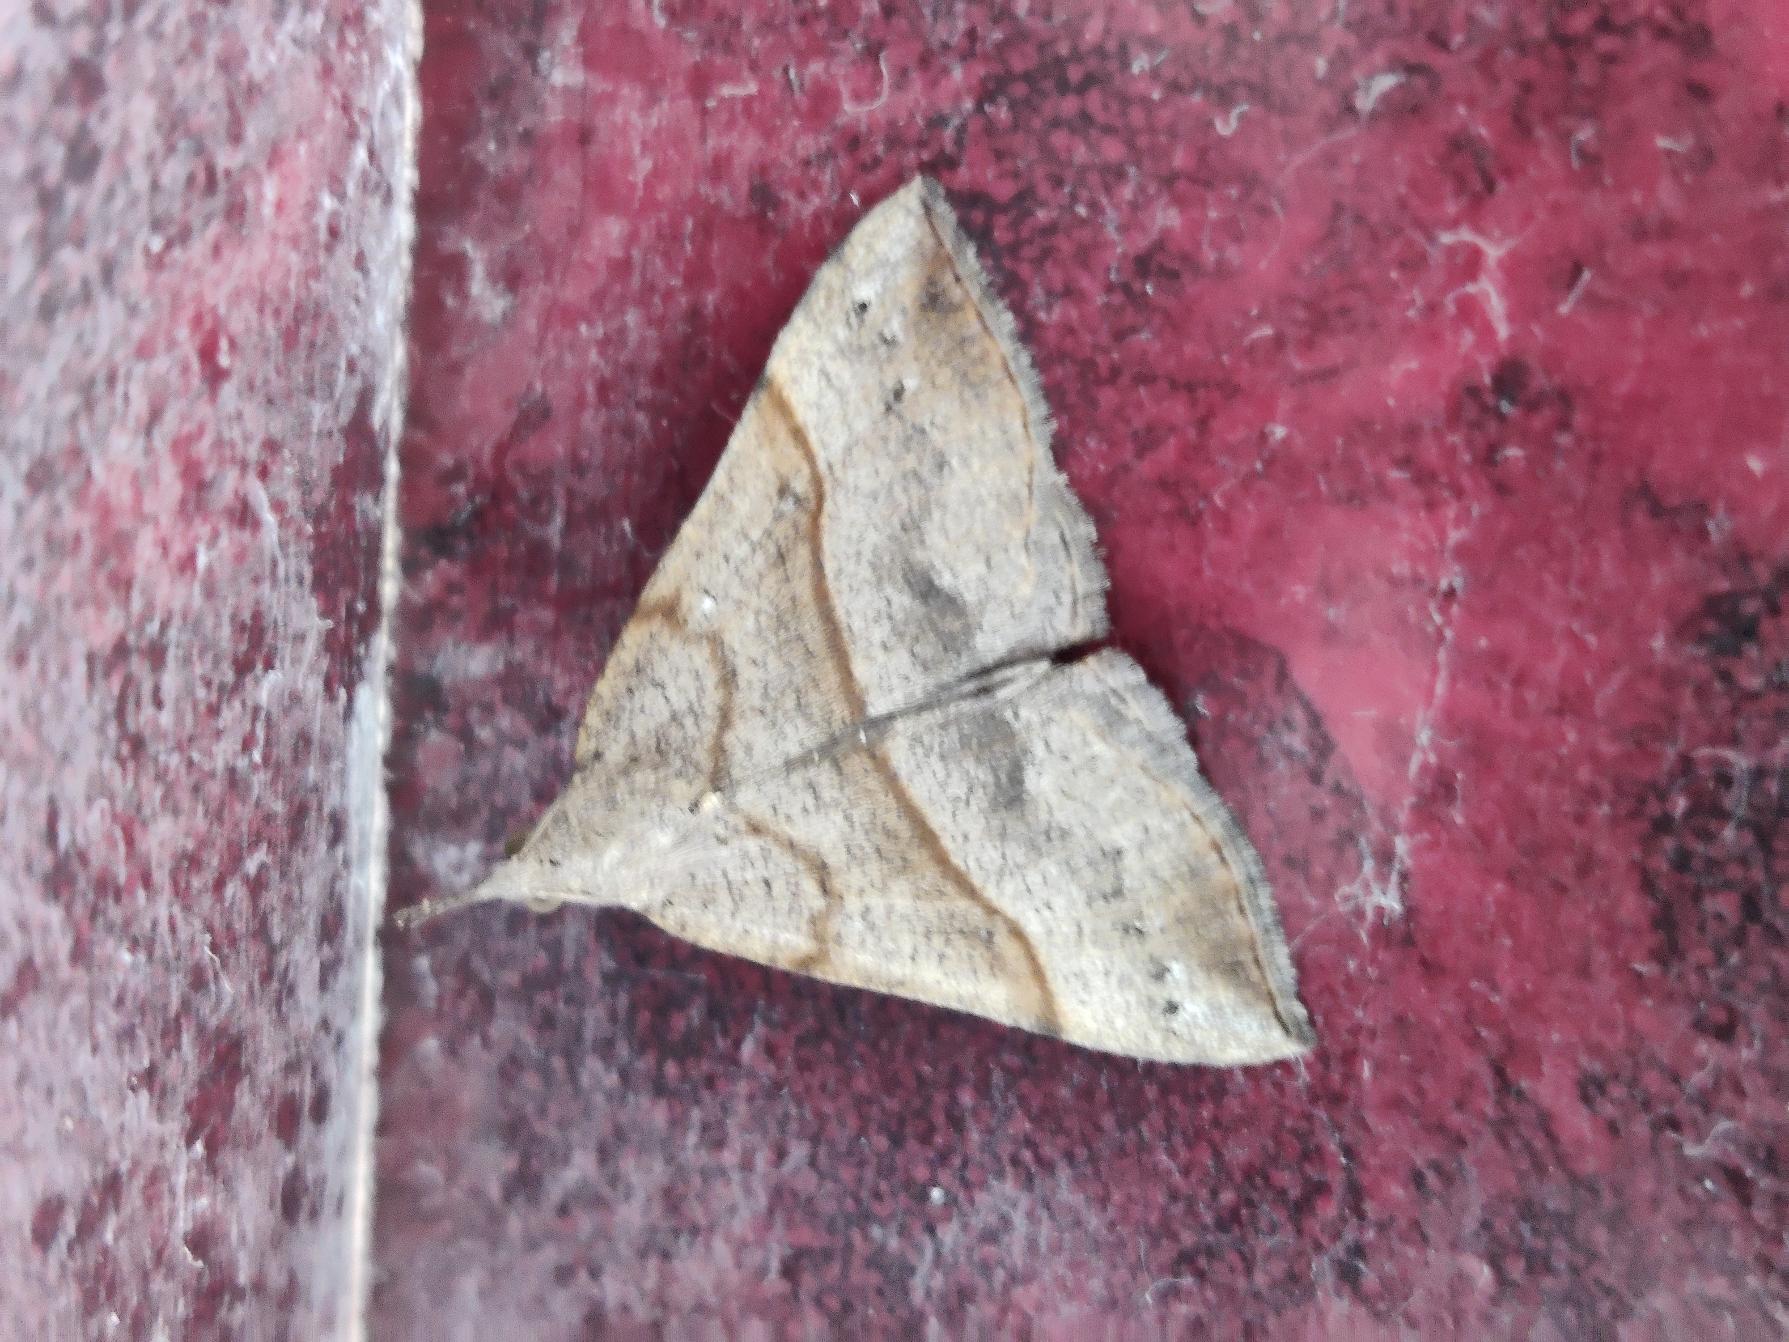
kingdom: Animalia
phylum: Arthropoda
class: Insecta
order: Lepidoptera
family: Erebidae
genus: Hypena
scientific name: Hypena proboscidalis
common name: Snudeugle
